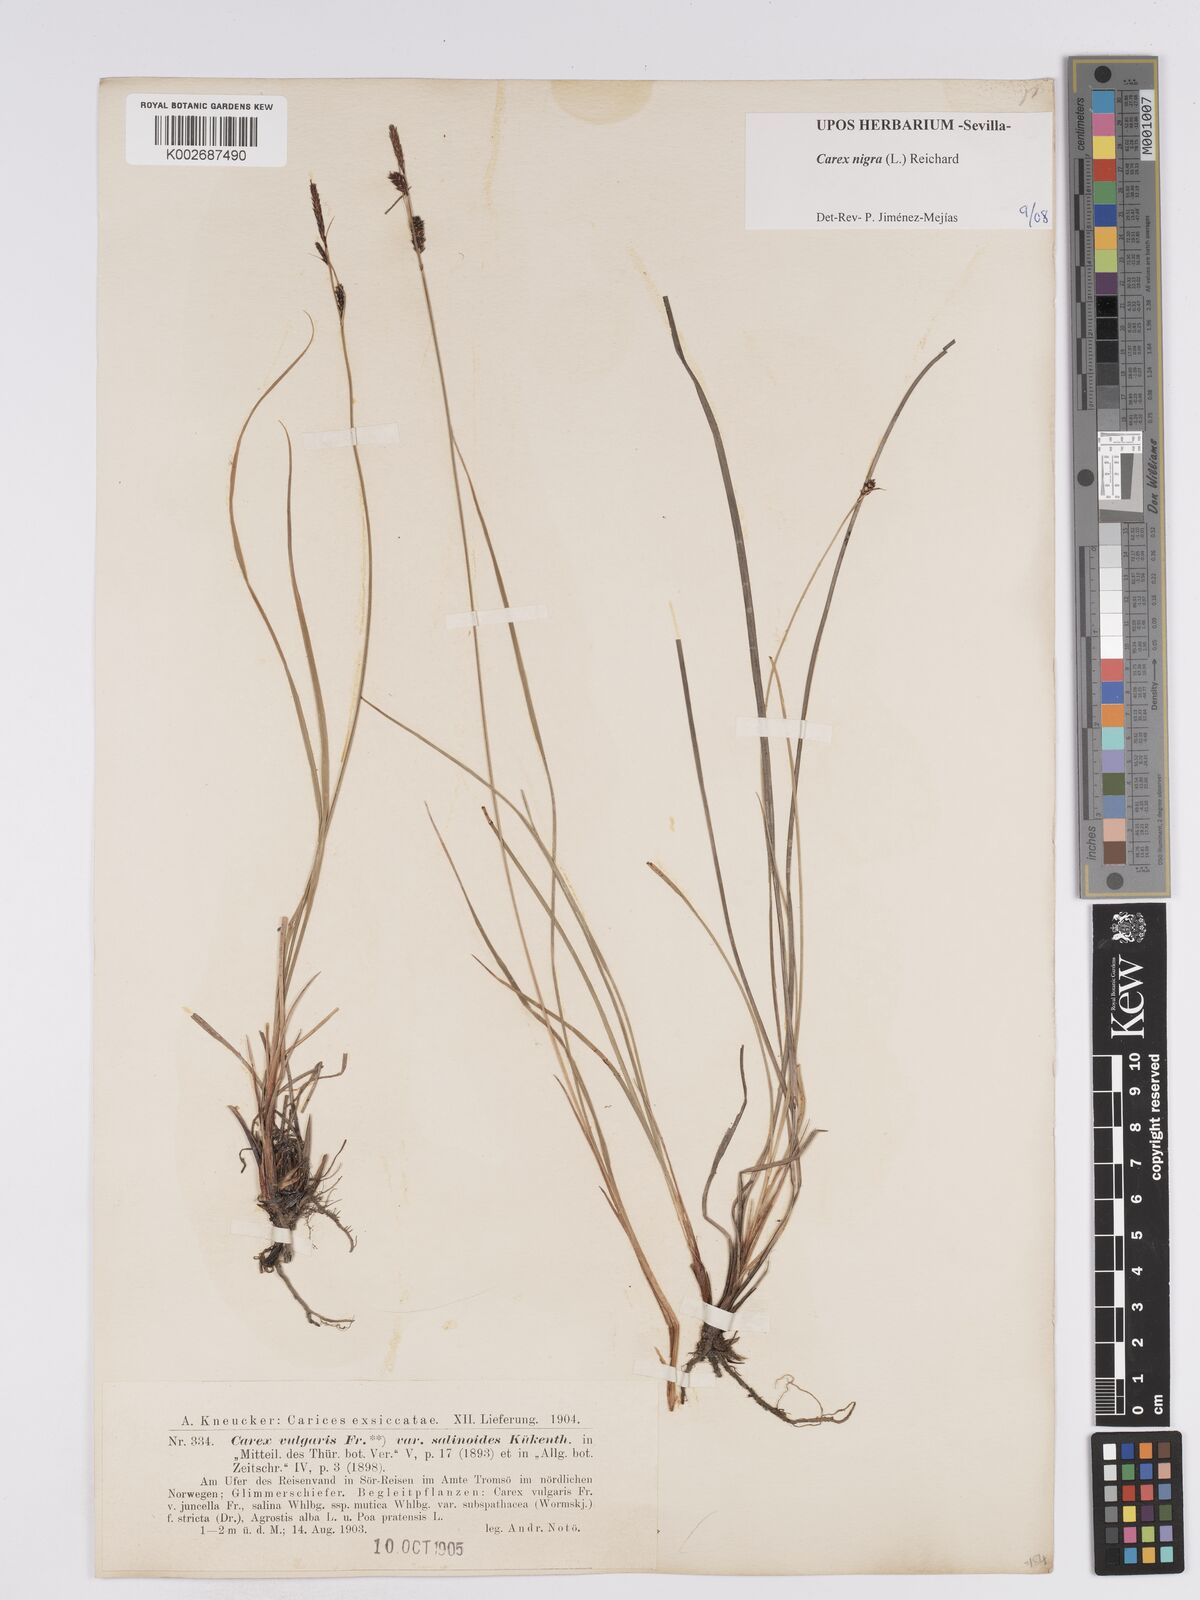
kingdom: Plantae
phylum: Tracheophyta
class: Liliopsida
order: Poales
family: Cyperaceae
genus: Carex
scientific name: Carex nigra
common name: Common sedge
